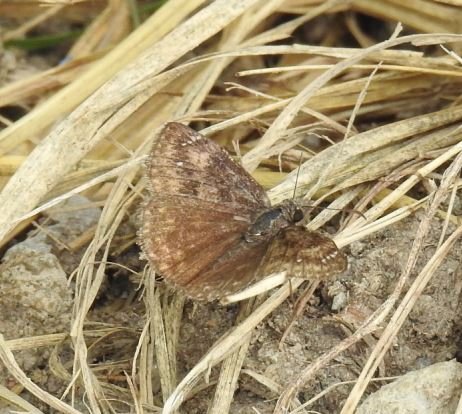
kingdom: Animalia
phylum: Arthropoda
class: Insecta
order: Lepidoptera
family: Hesperiidae
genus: Gesta
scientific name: Gesta
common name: Wild Indigo Duskywing
